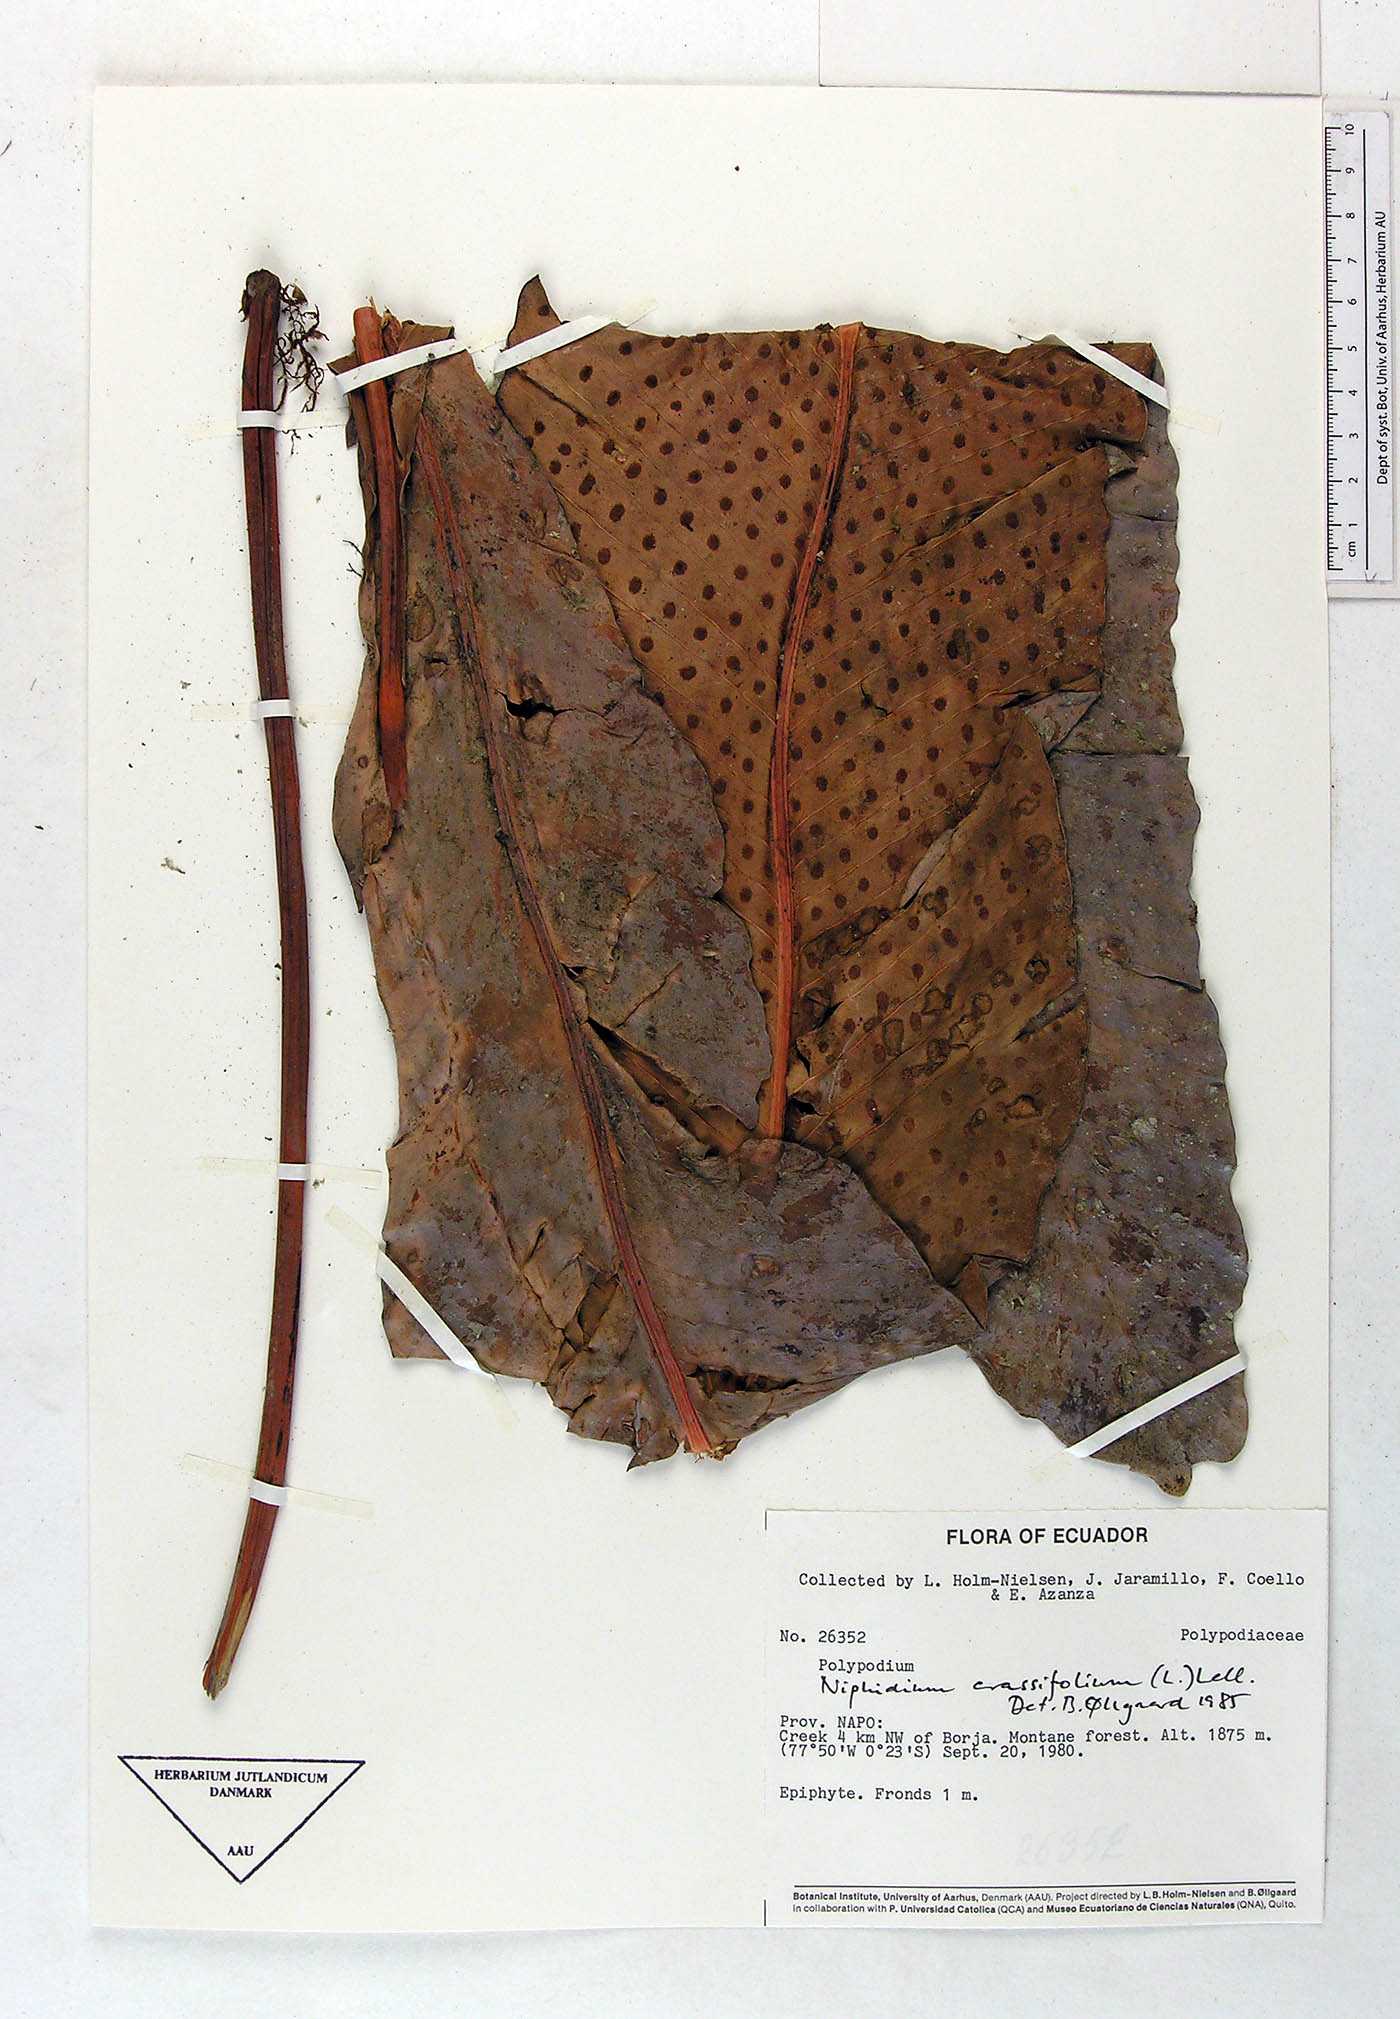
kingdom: Plantae
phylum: Tracheophyta
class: Polypodiopsida
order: Polypodiales
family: Polypodiaceae
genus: Niphidium
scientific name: Niphidium crassifolium
